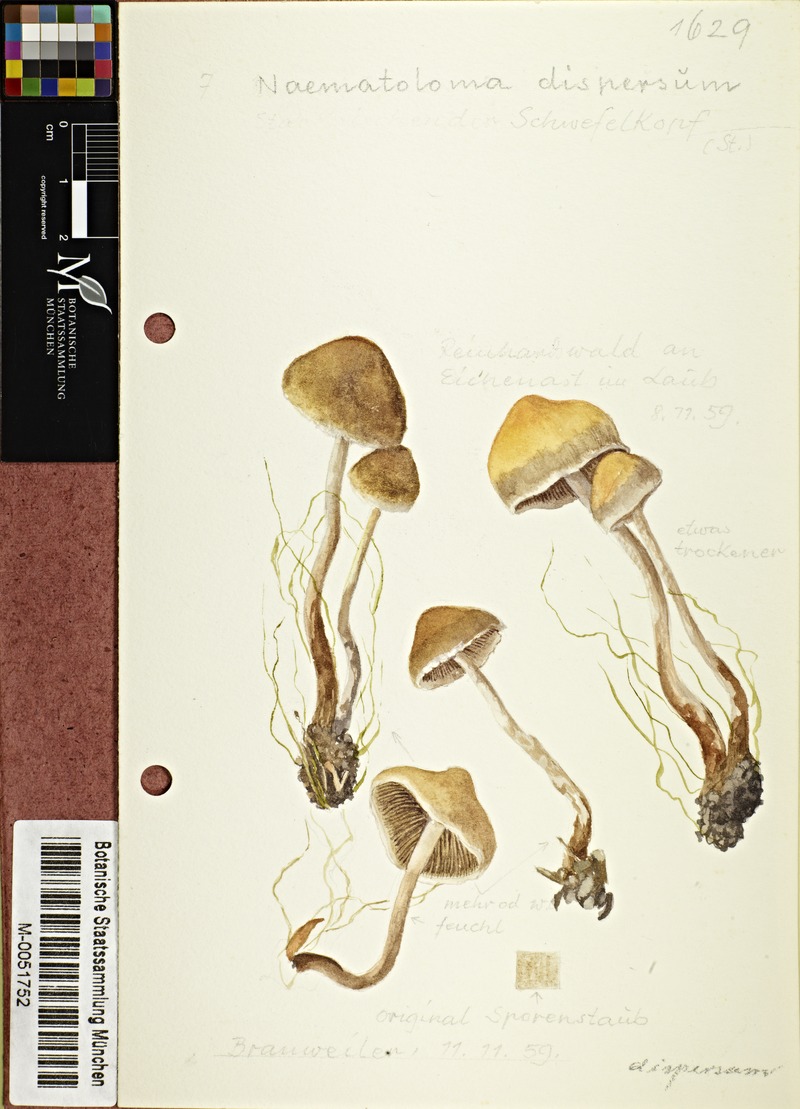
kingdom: Fungi
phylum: Basidiomycota
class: Agaricomycetes
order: Agaricales
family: Strophariaceae
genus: Hypholoma
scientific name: Hypholoma marginatum
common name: Snakeskin brownie
